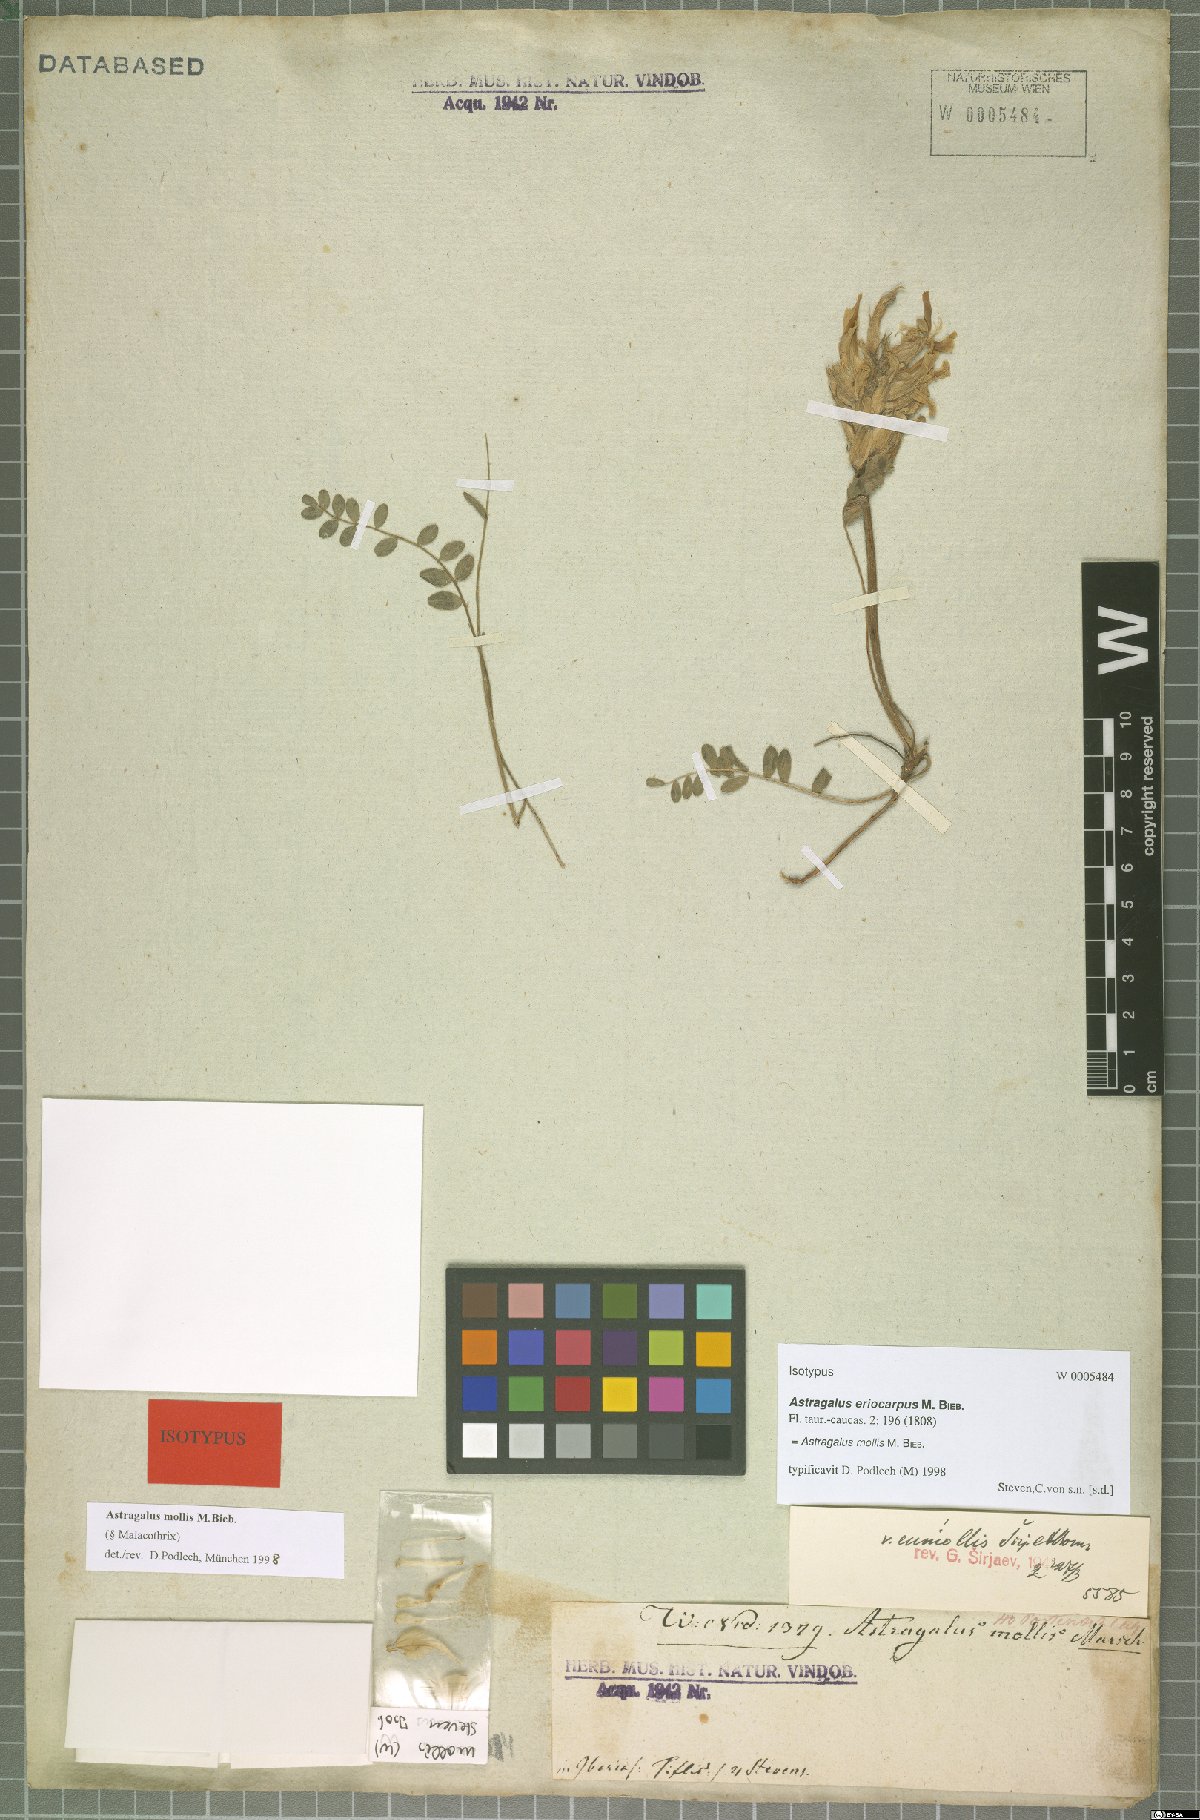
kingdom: Plantae
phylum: Tracheophyta
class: Magnoliopsida
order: Fabales
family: Fabaceae
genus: Astragalus
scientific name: Astragalus mollis
